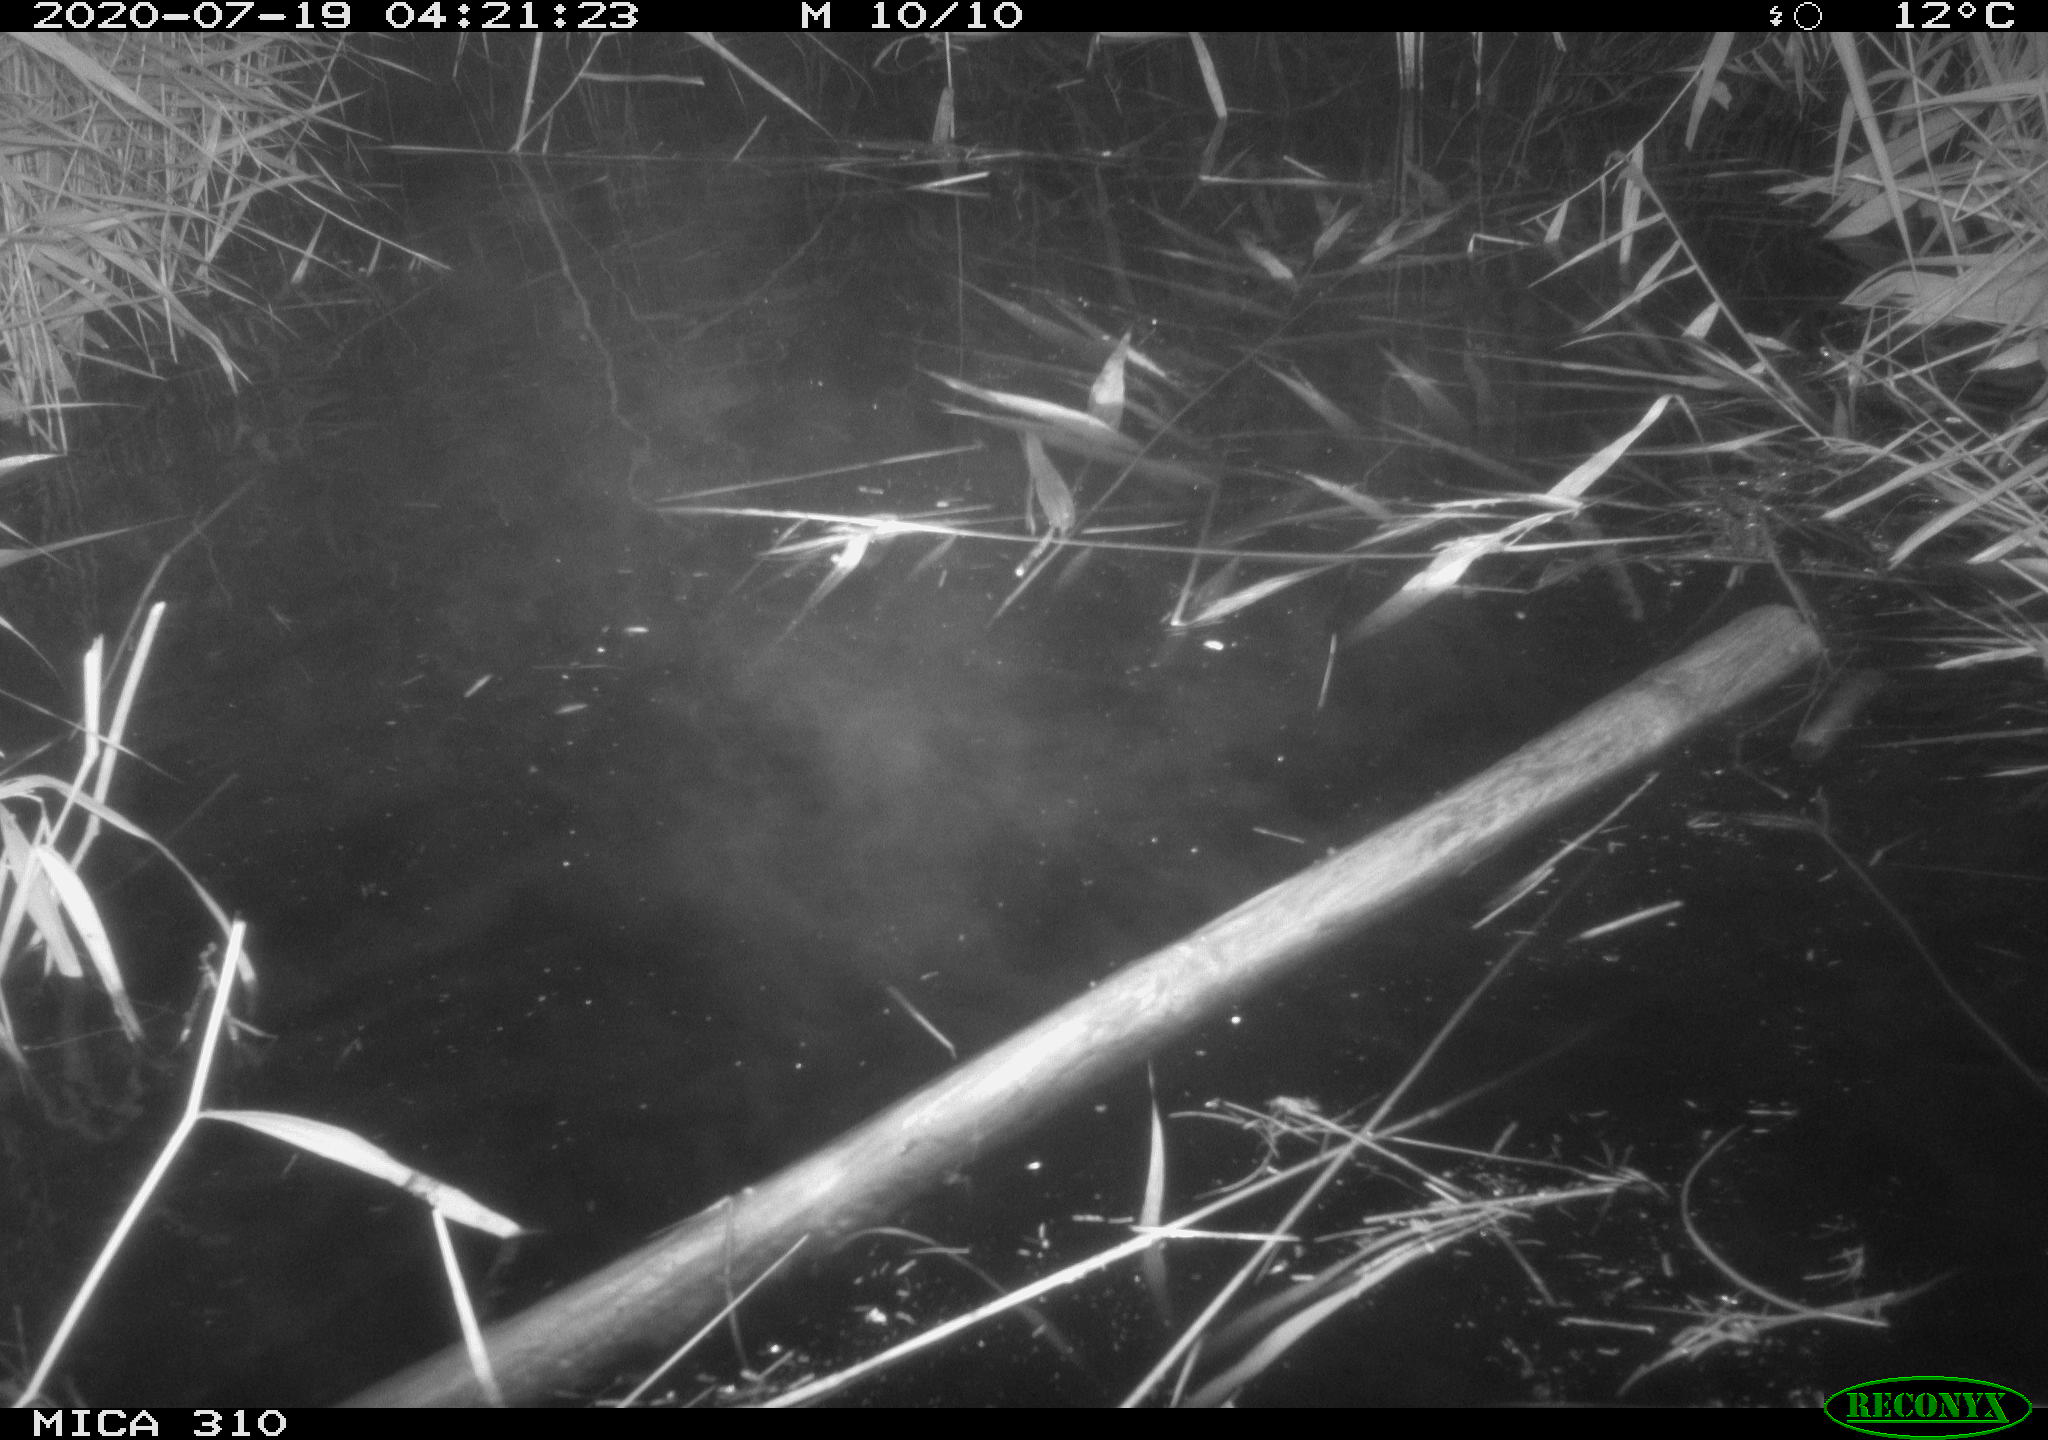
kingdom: Animalia
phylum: Chordata
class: Mammalia
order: Rodentia
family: Cricetidae
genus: Ondatra
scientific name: Ondatra zibethicus
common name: Muskrat
